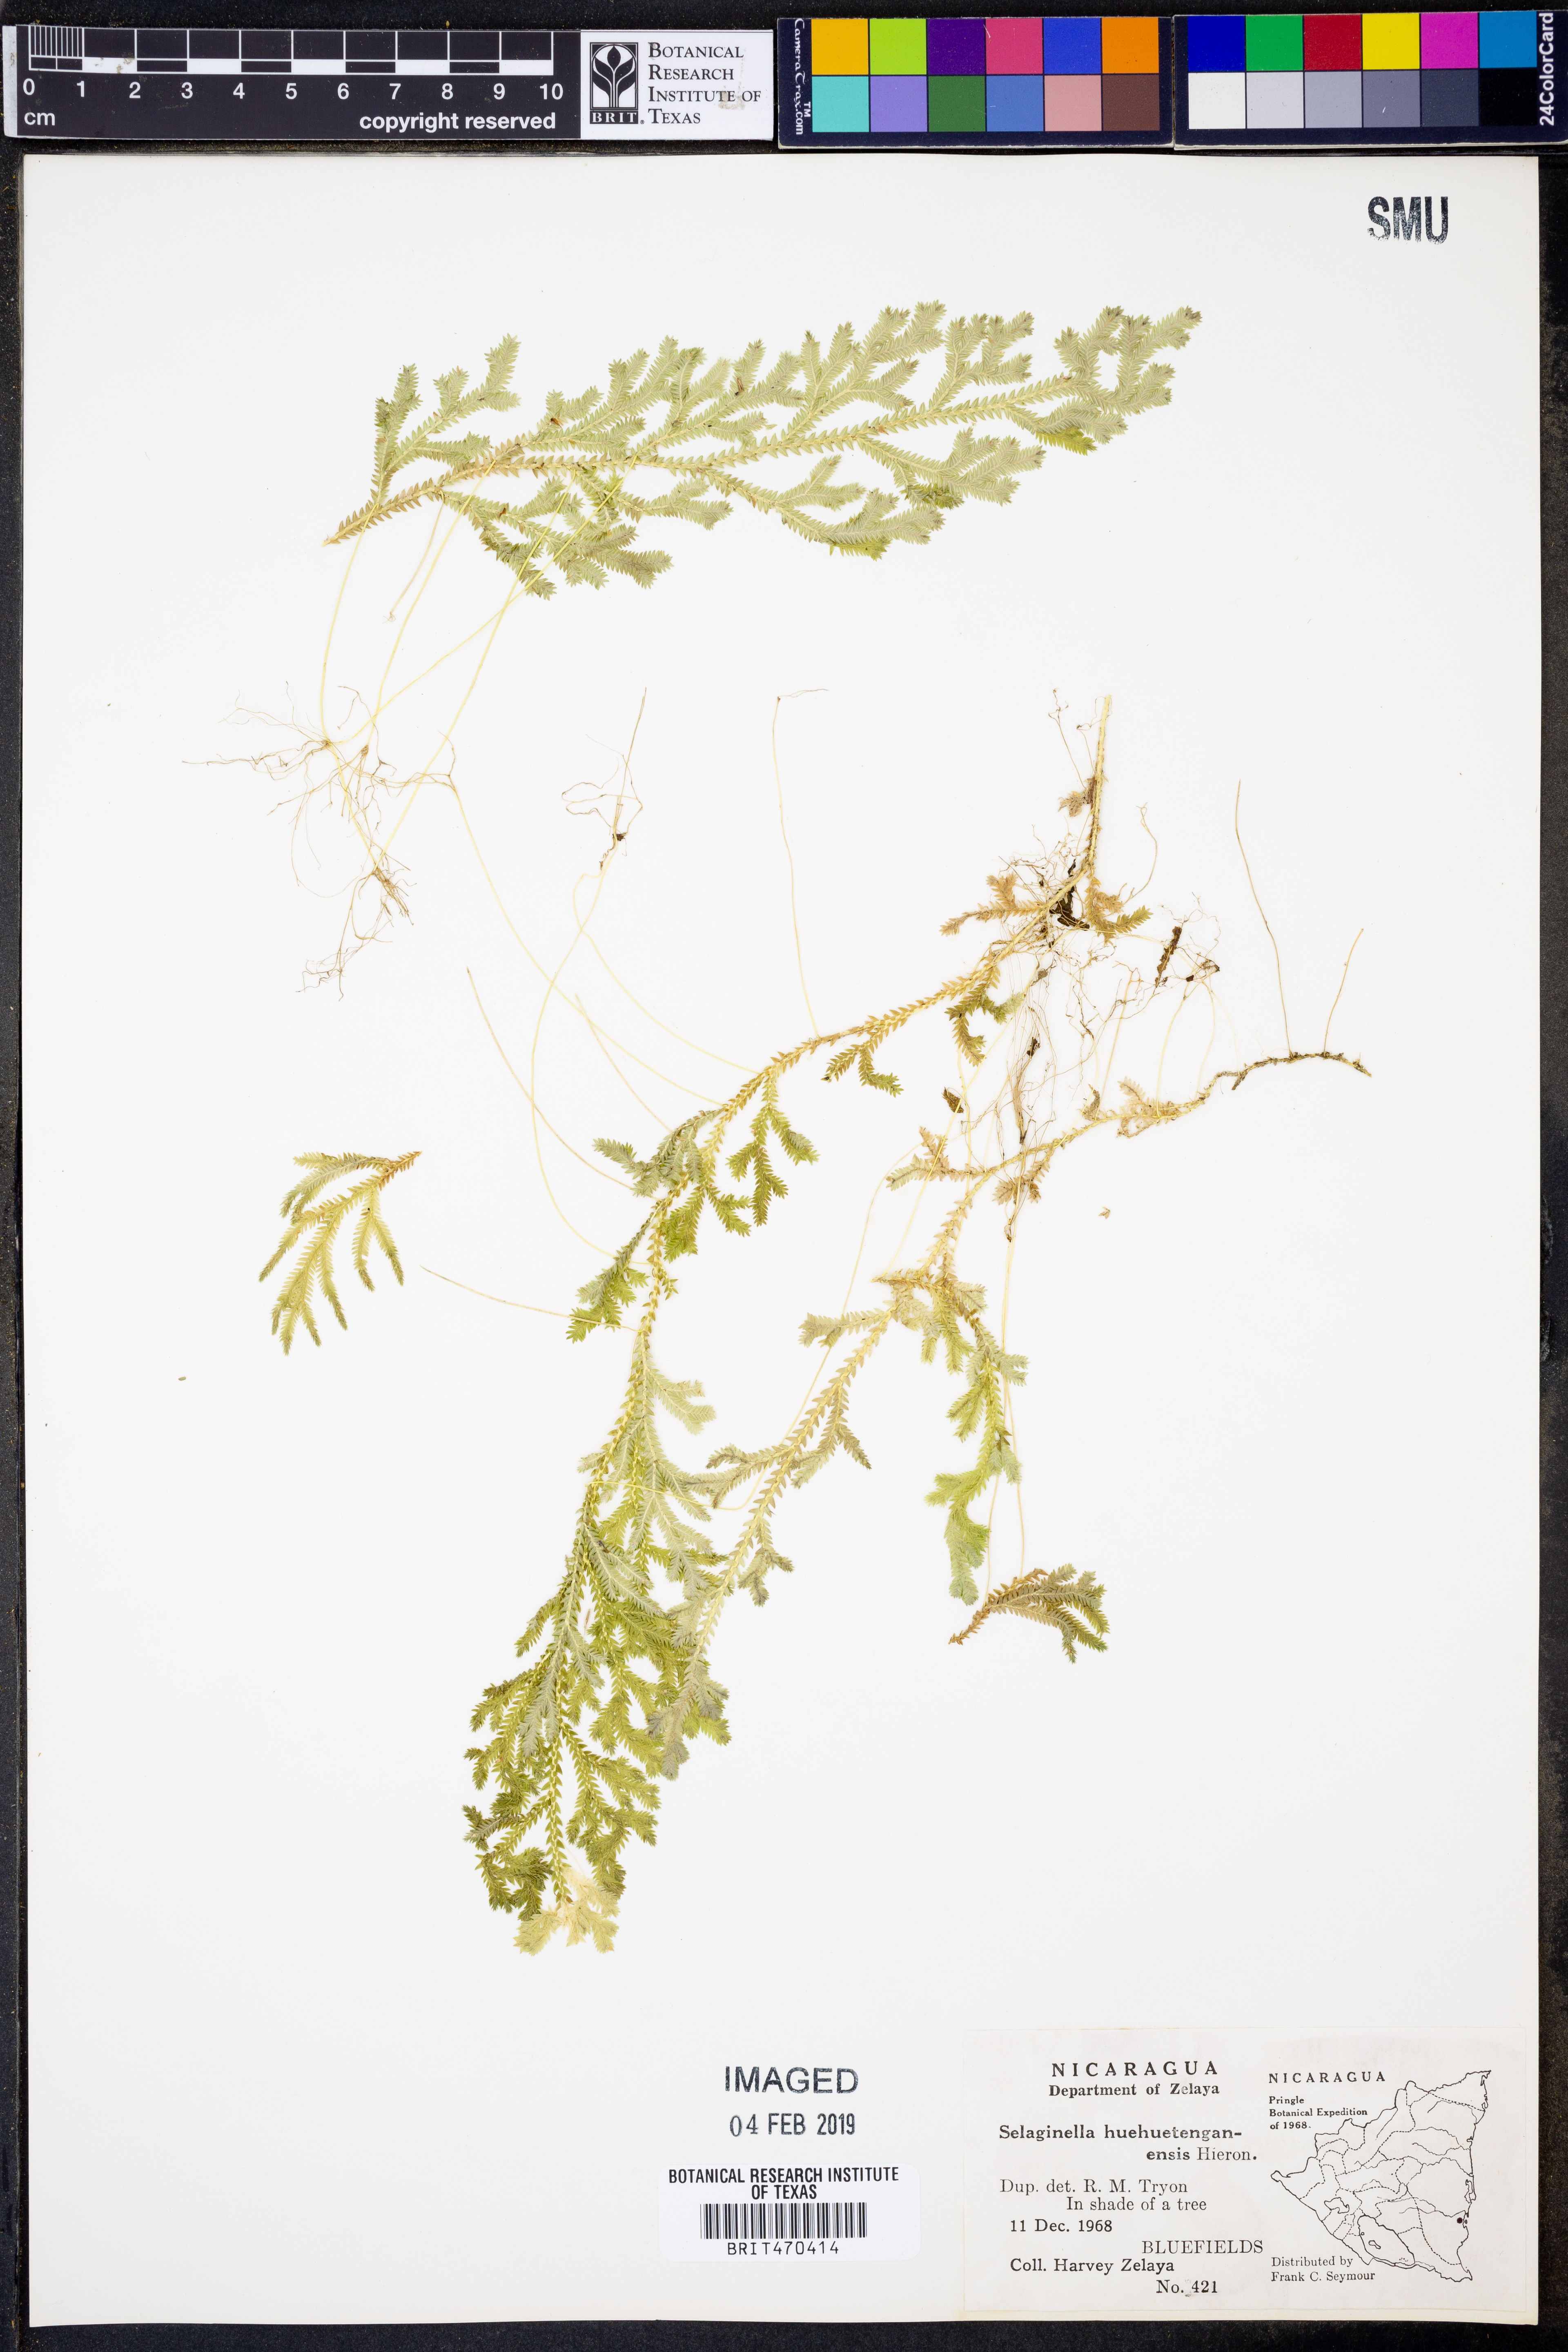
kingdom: Plantae
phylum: Tracheophyta
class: Lycopodiopsida
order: Selaginellales
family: Selaginellaceae
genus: Selaginella
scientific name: Selaginella huehuetenangensis
